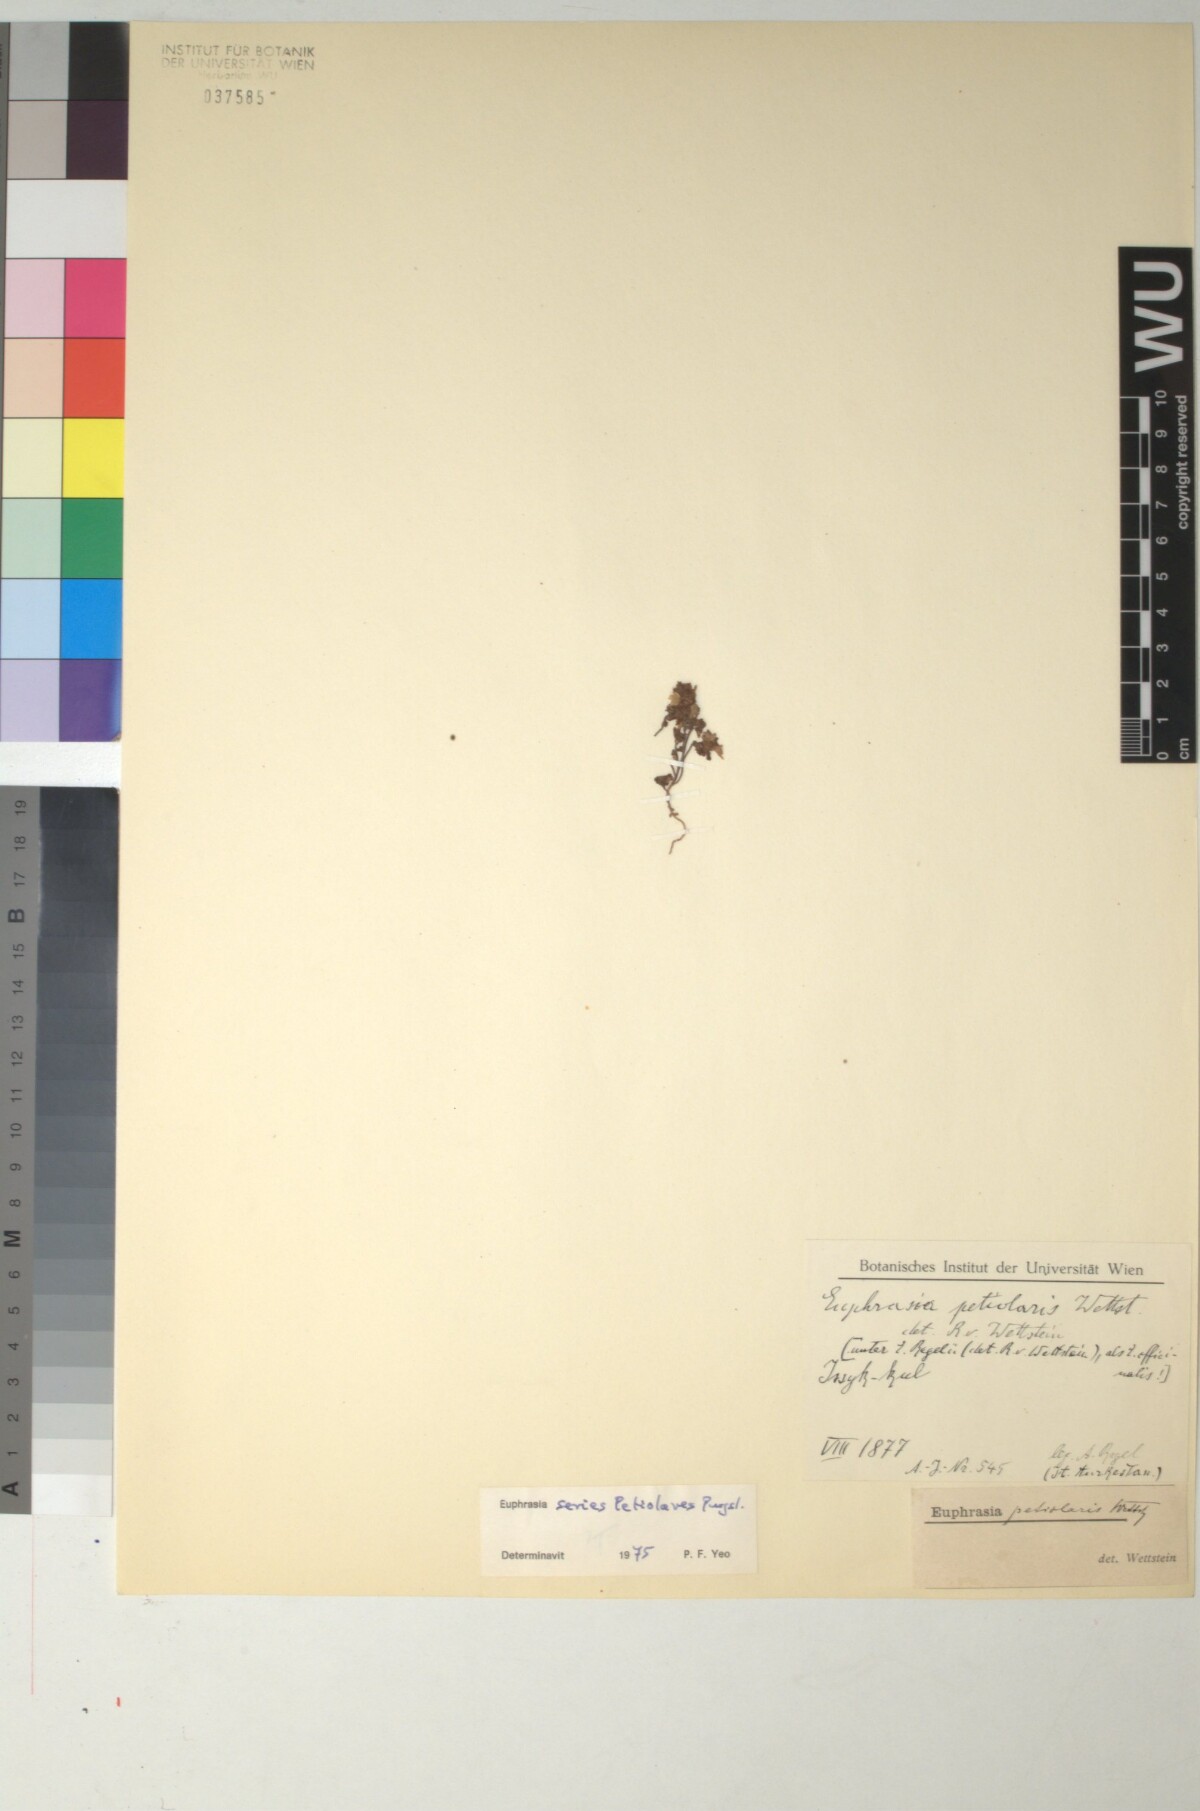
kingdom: Plantae
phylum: Tracheophyta
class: Magnoliopsida
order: Lamiales
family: Orobanchaceae
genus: Euphrasia
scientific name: Euphrasia petiolaris
